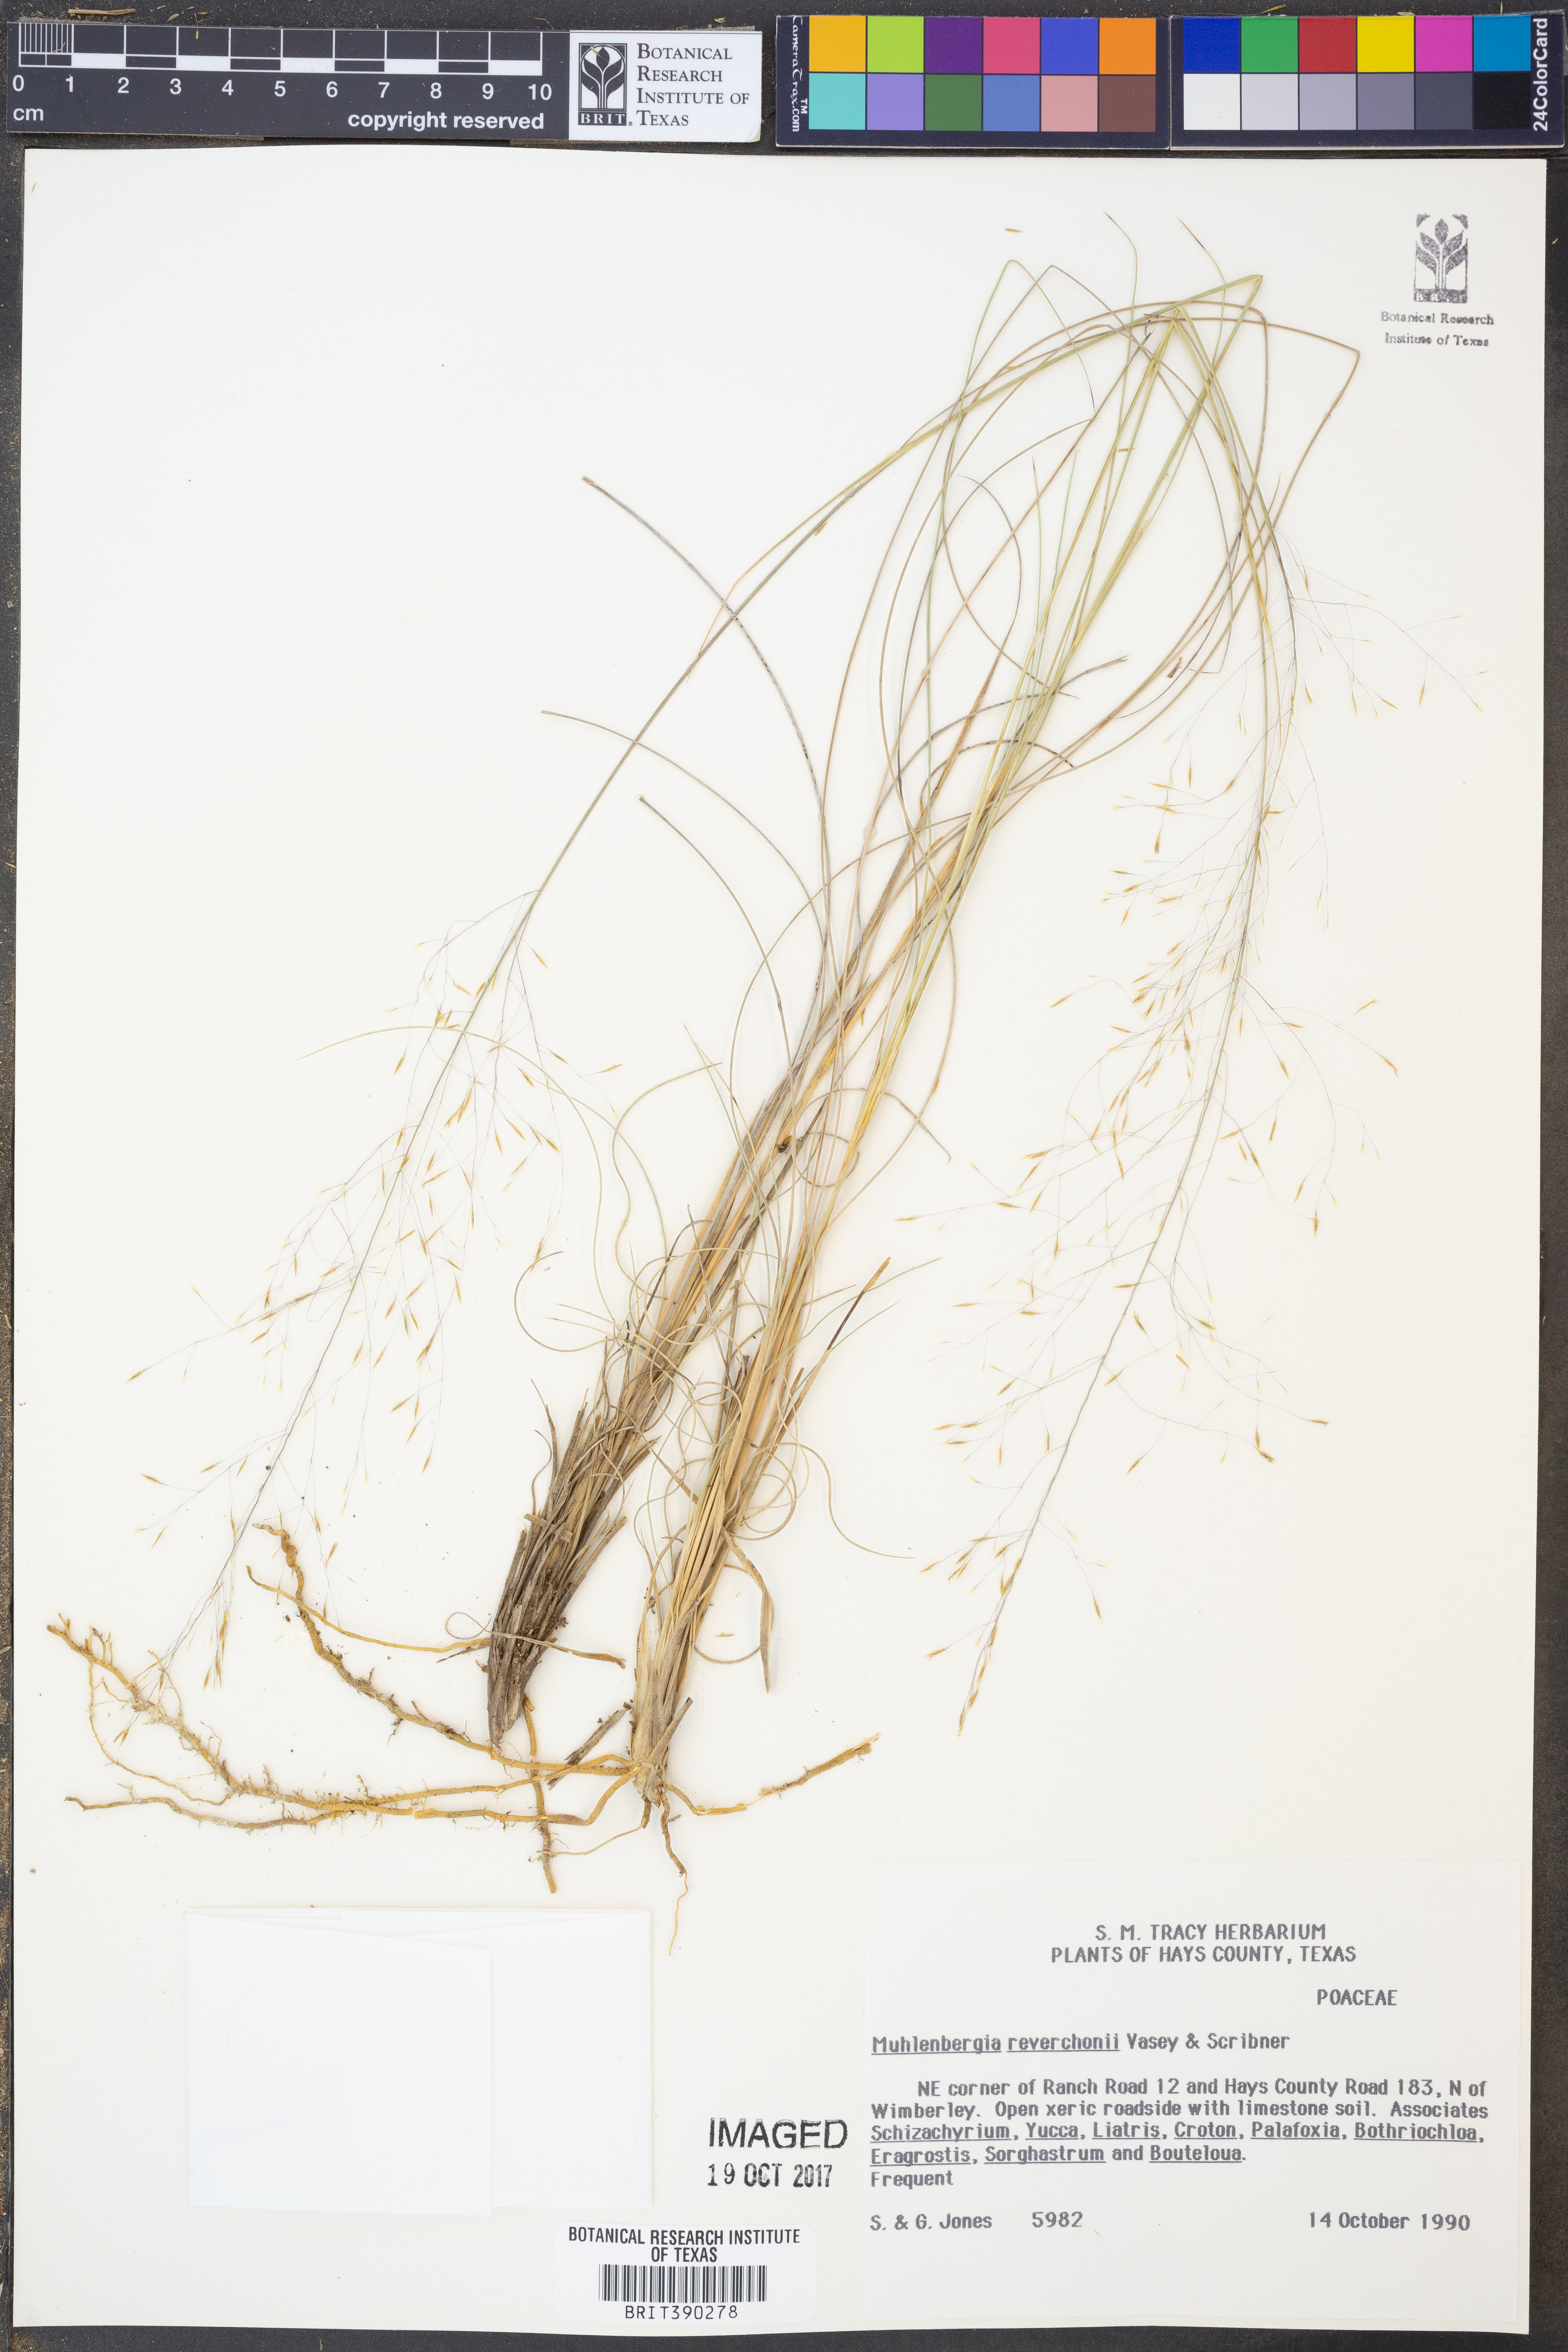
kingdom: Plantae
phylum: Tracheophyta
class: Liliopsida
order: Poales
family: Poaceae
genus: Muhlenbergia
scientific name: Muhlenbergia reverchonii
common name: Seep muhly
